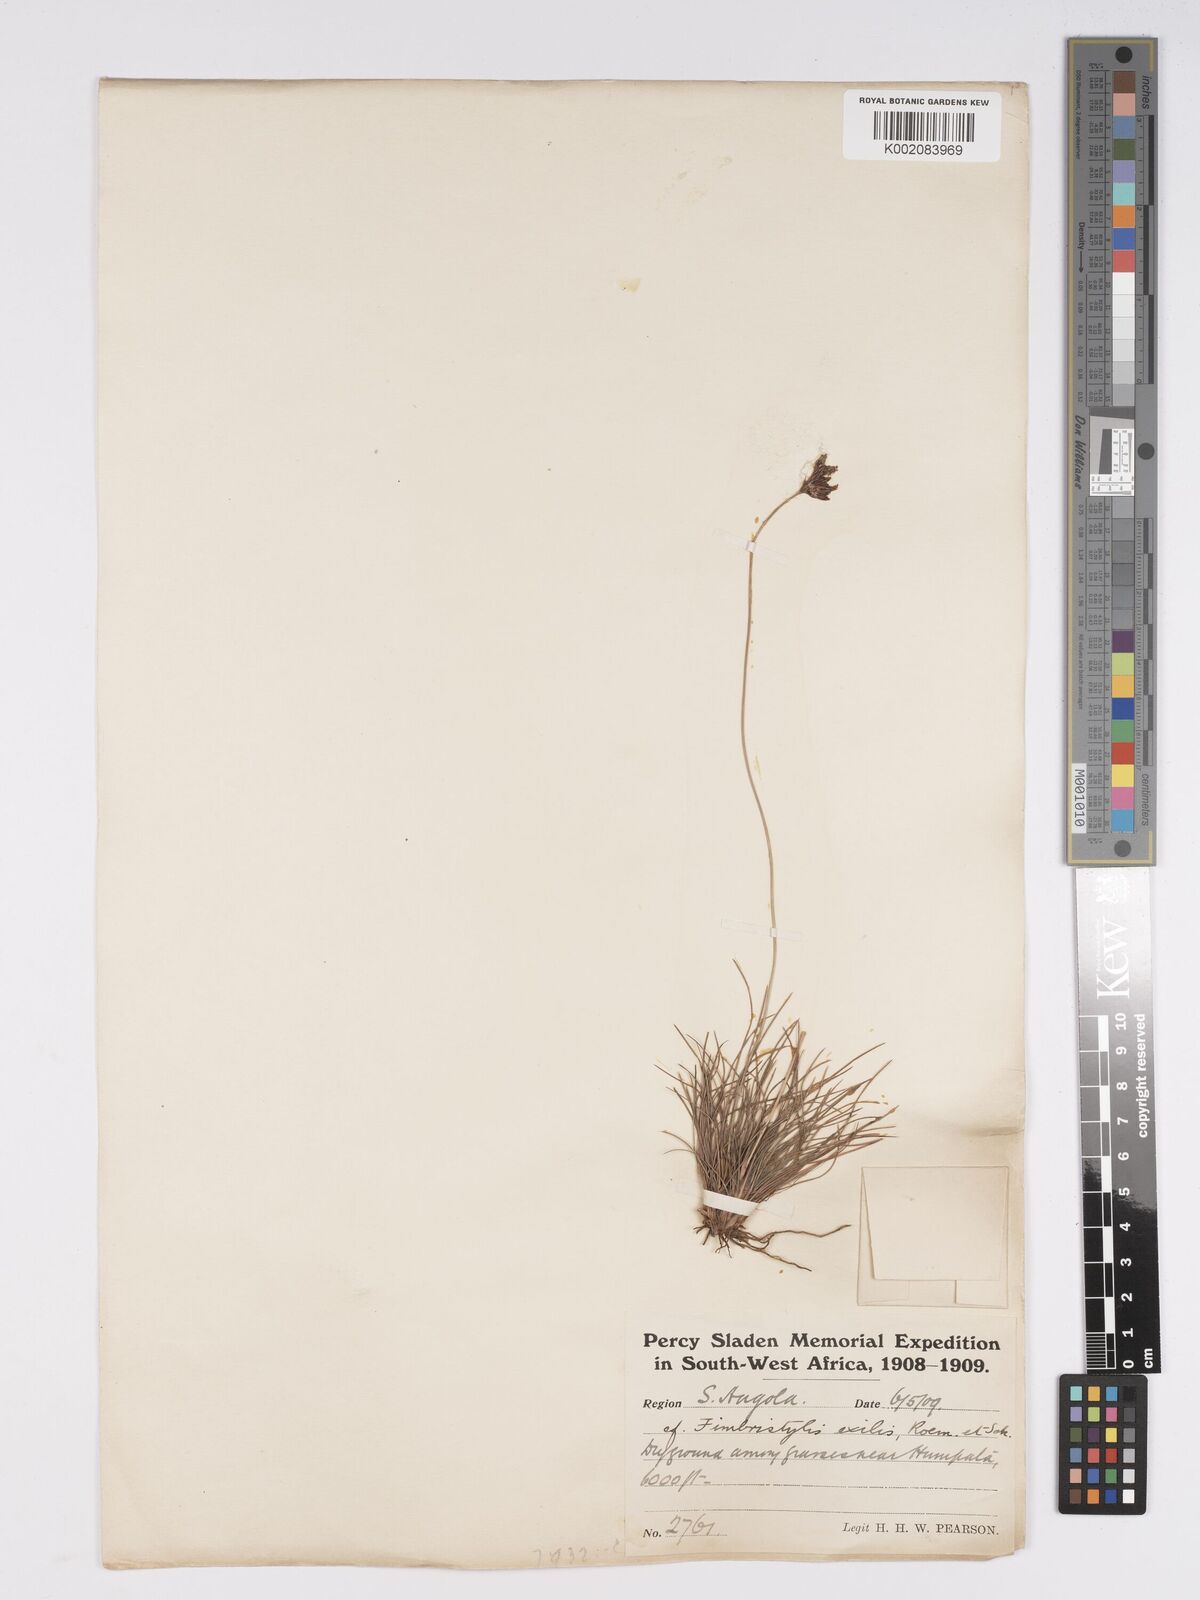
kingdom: Plantae
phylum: Tracheophyta
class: Liliopsida
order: Poales
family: Cyperaceae
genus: Bulbostylis
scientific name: Bulbostylis hispidula
